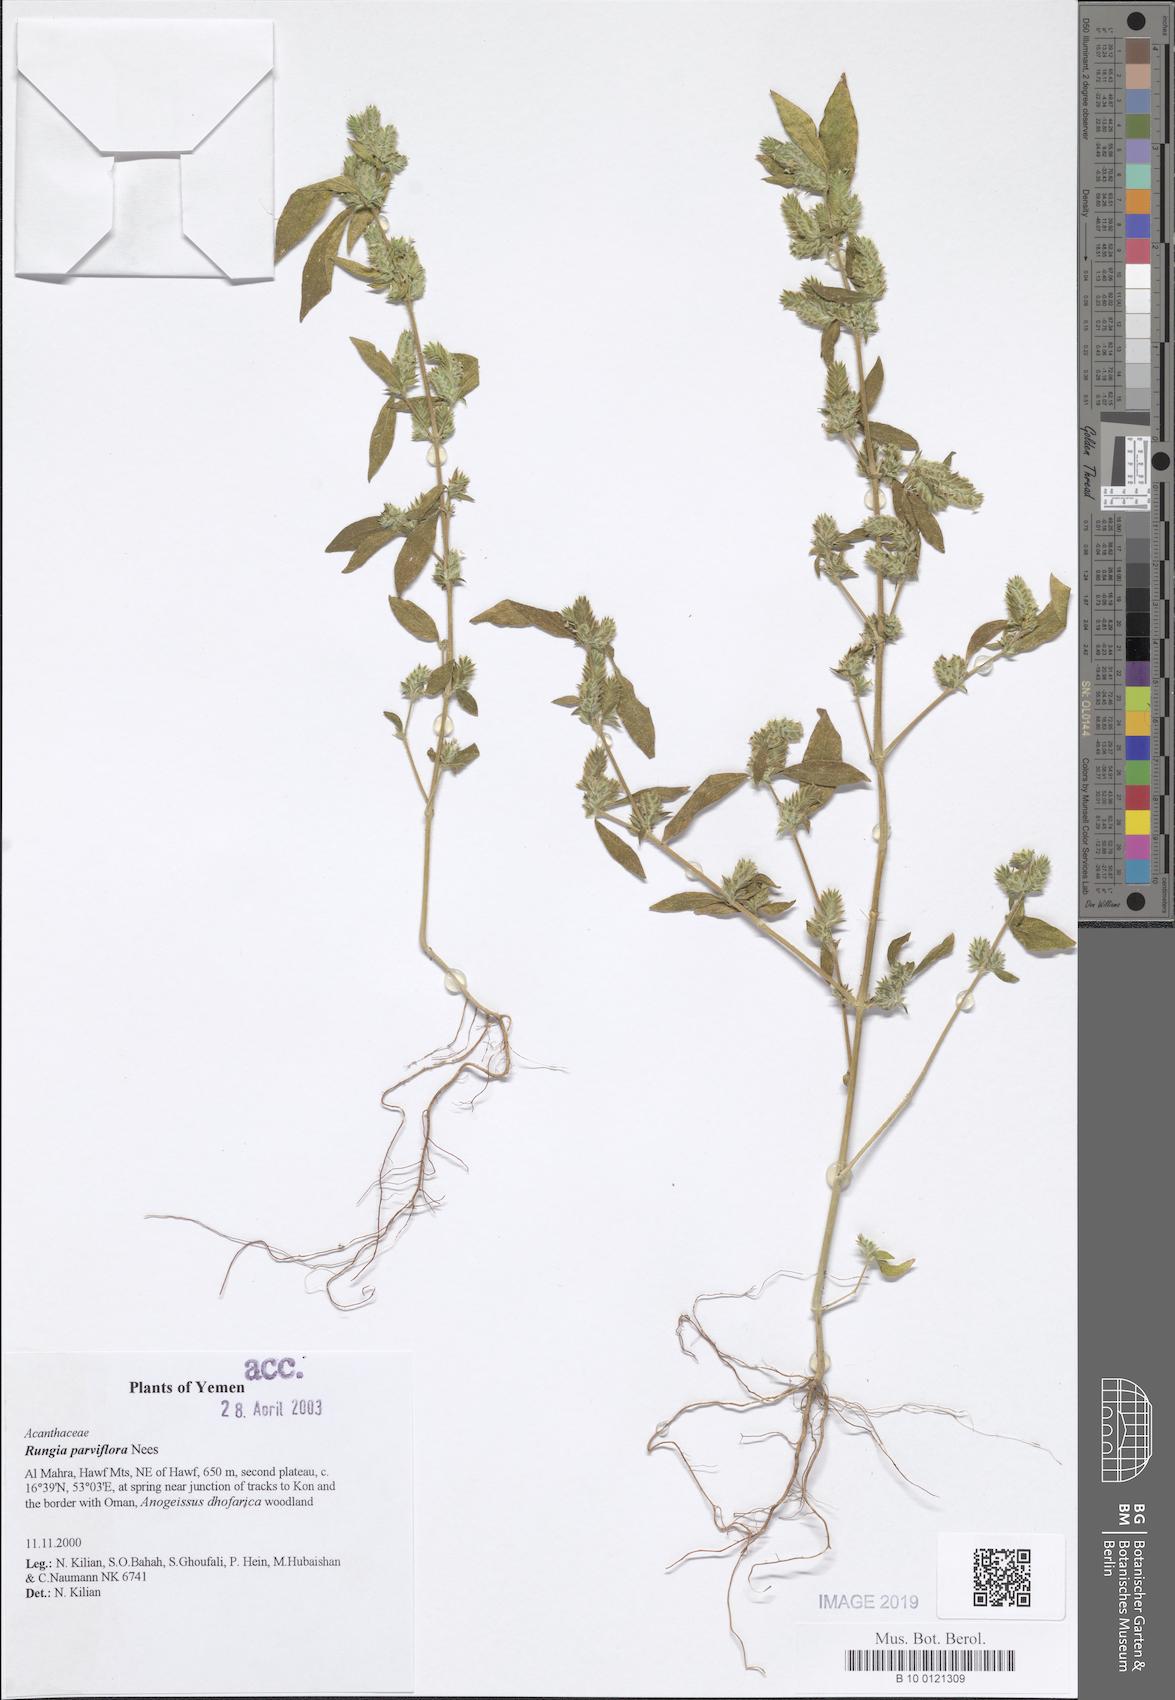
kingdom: Plantae
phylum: Tracheophyta
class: Magnoliopsida
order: Lamiales
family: Acanthaceae
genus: Rungia
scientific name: Rungia pectinata
